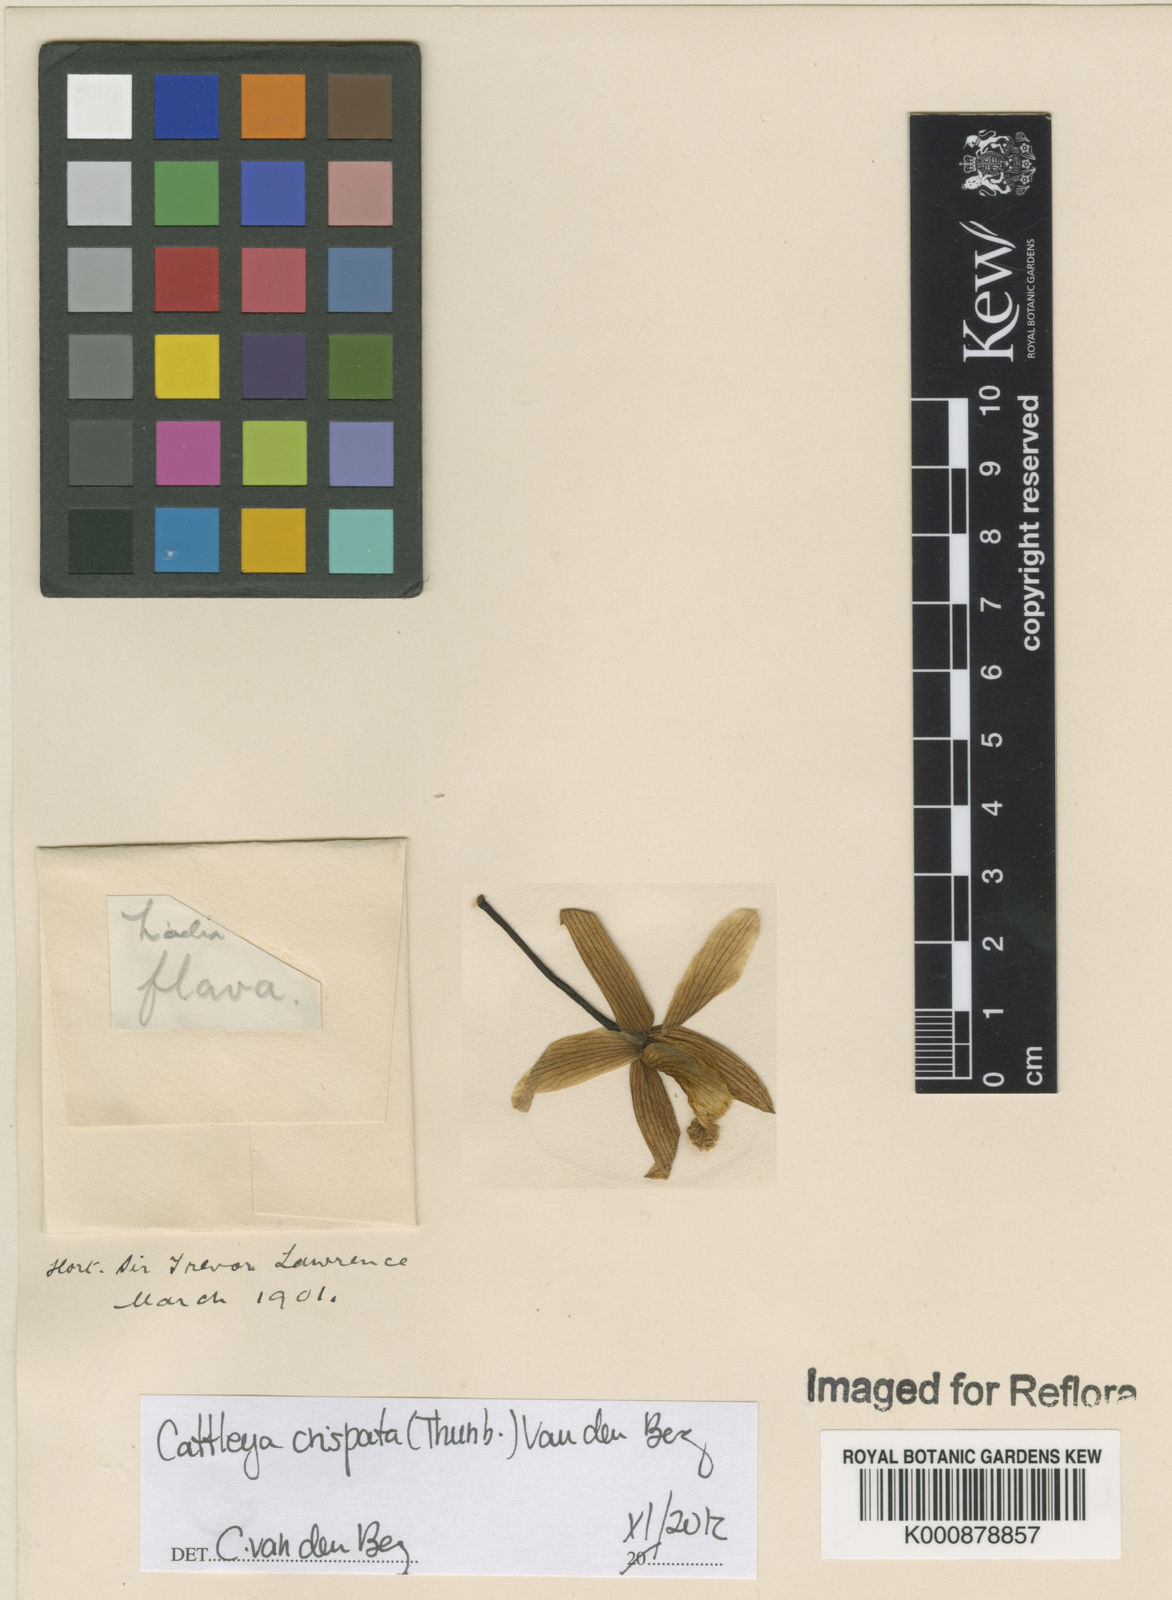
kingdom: Plantae
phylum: Tracheophyta
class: Liliopsida
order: Asparagales
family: Orchidaceae
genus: Cattleya
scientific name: Cattleya crispata
